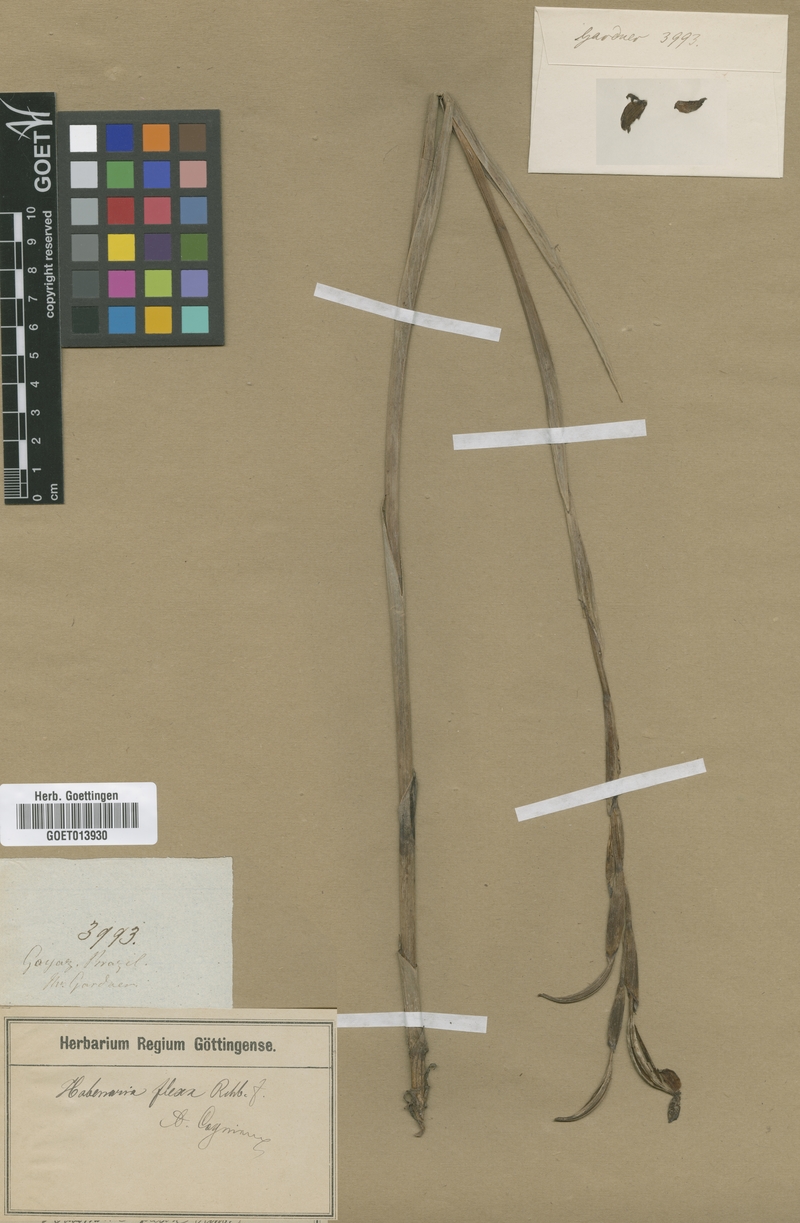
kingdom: Plantae
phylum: Tracheophyta
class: Liliopsida
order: Asparagales
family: Orchidaceae
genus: Habenaria
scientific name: Habenaria trifida
